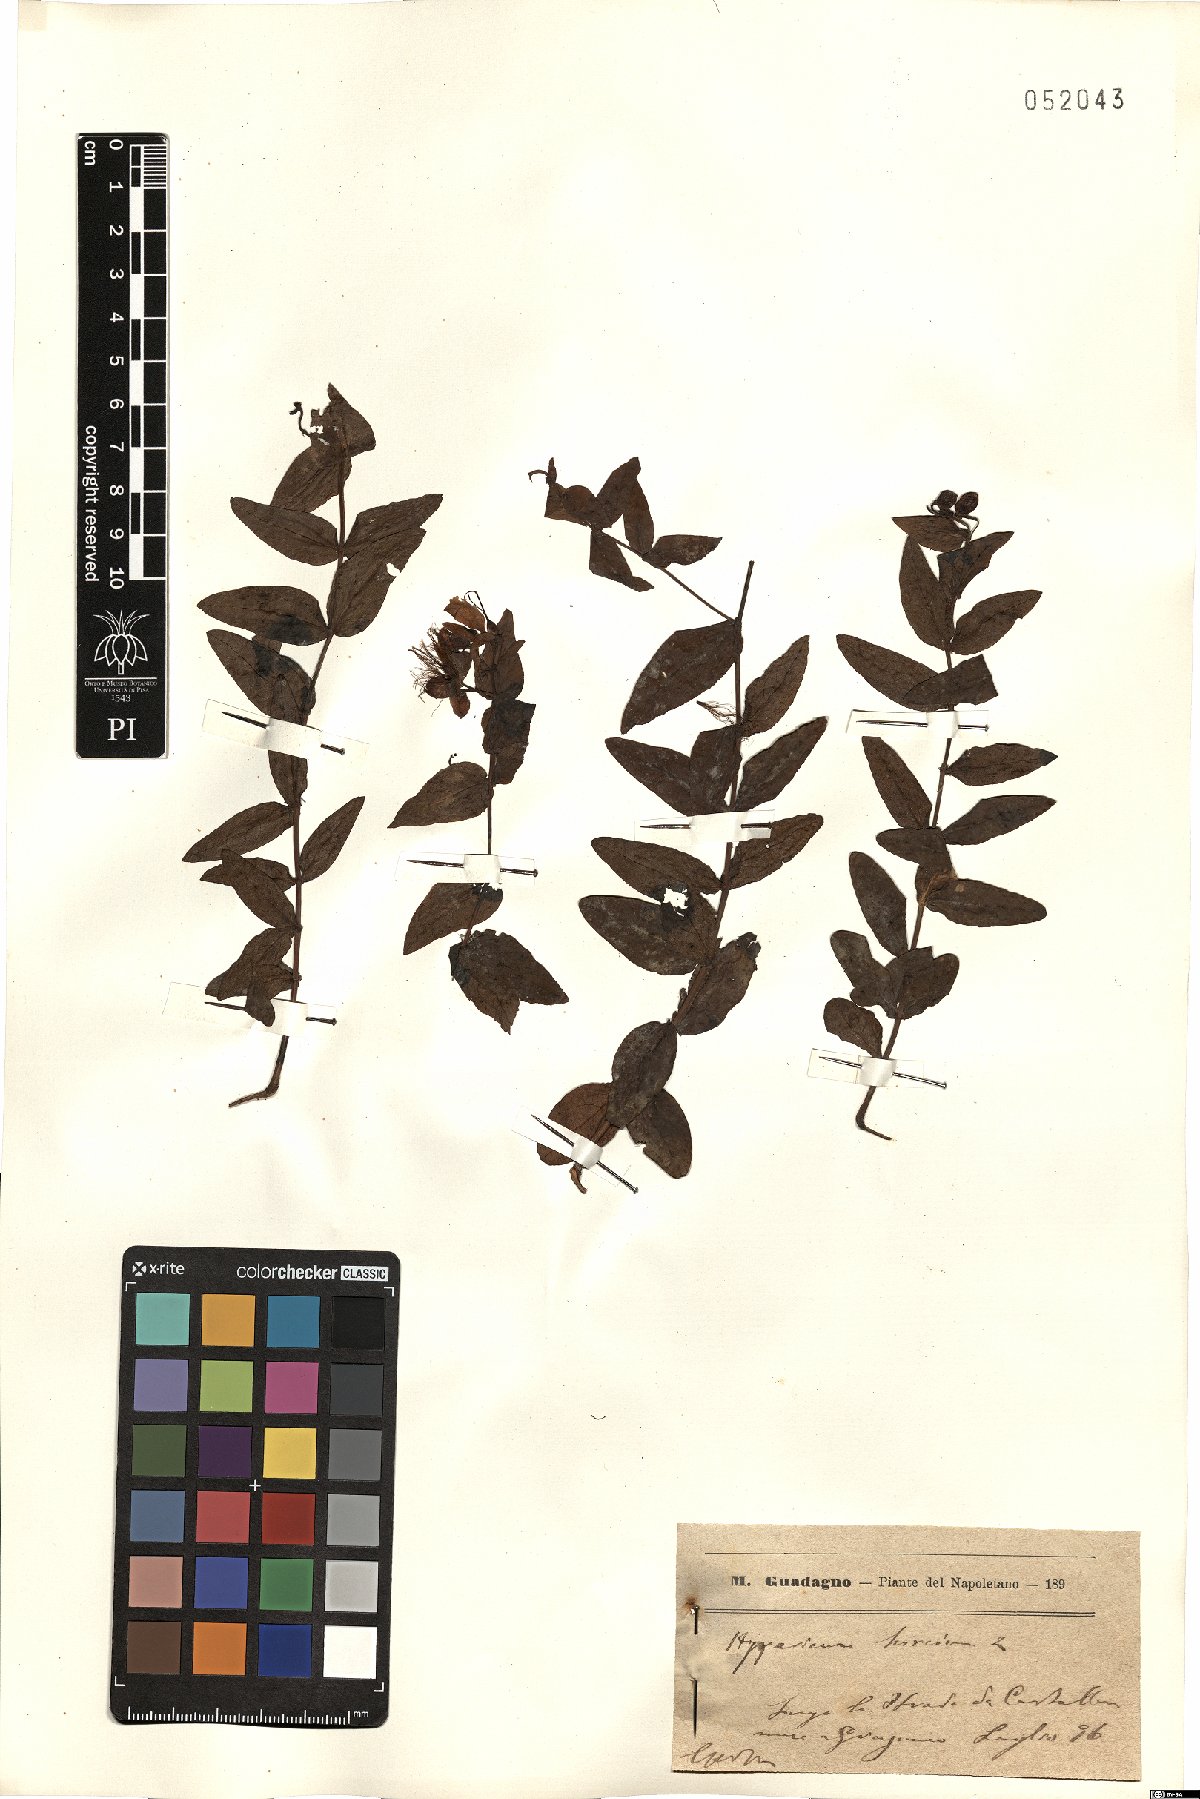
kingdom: Plantae
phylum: Tracheophyta
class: Magnoliopsida
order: Malpighiales
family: Hypericaceae
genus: Hypericum
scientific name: Hypericum hircinum
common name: Stinking tutsan
